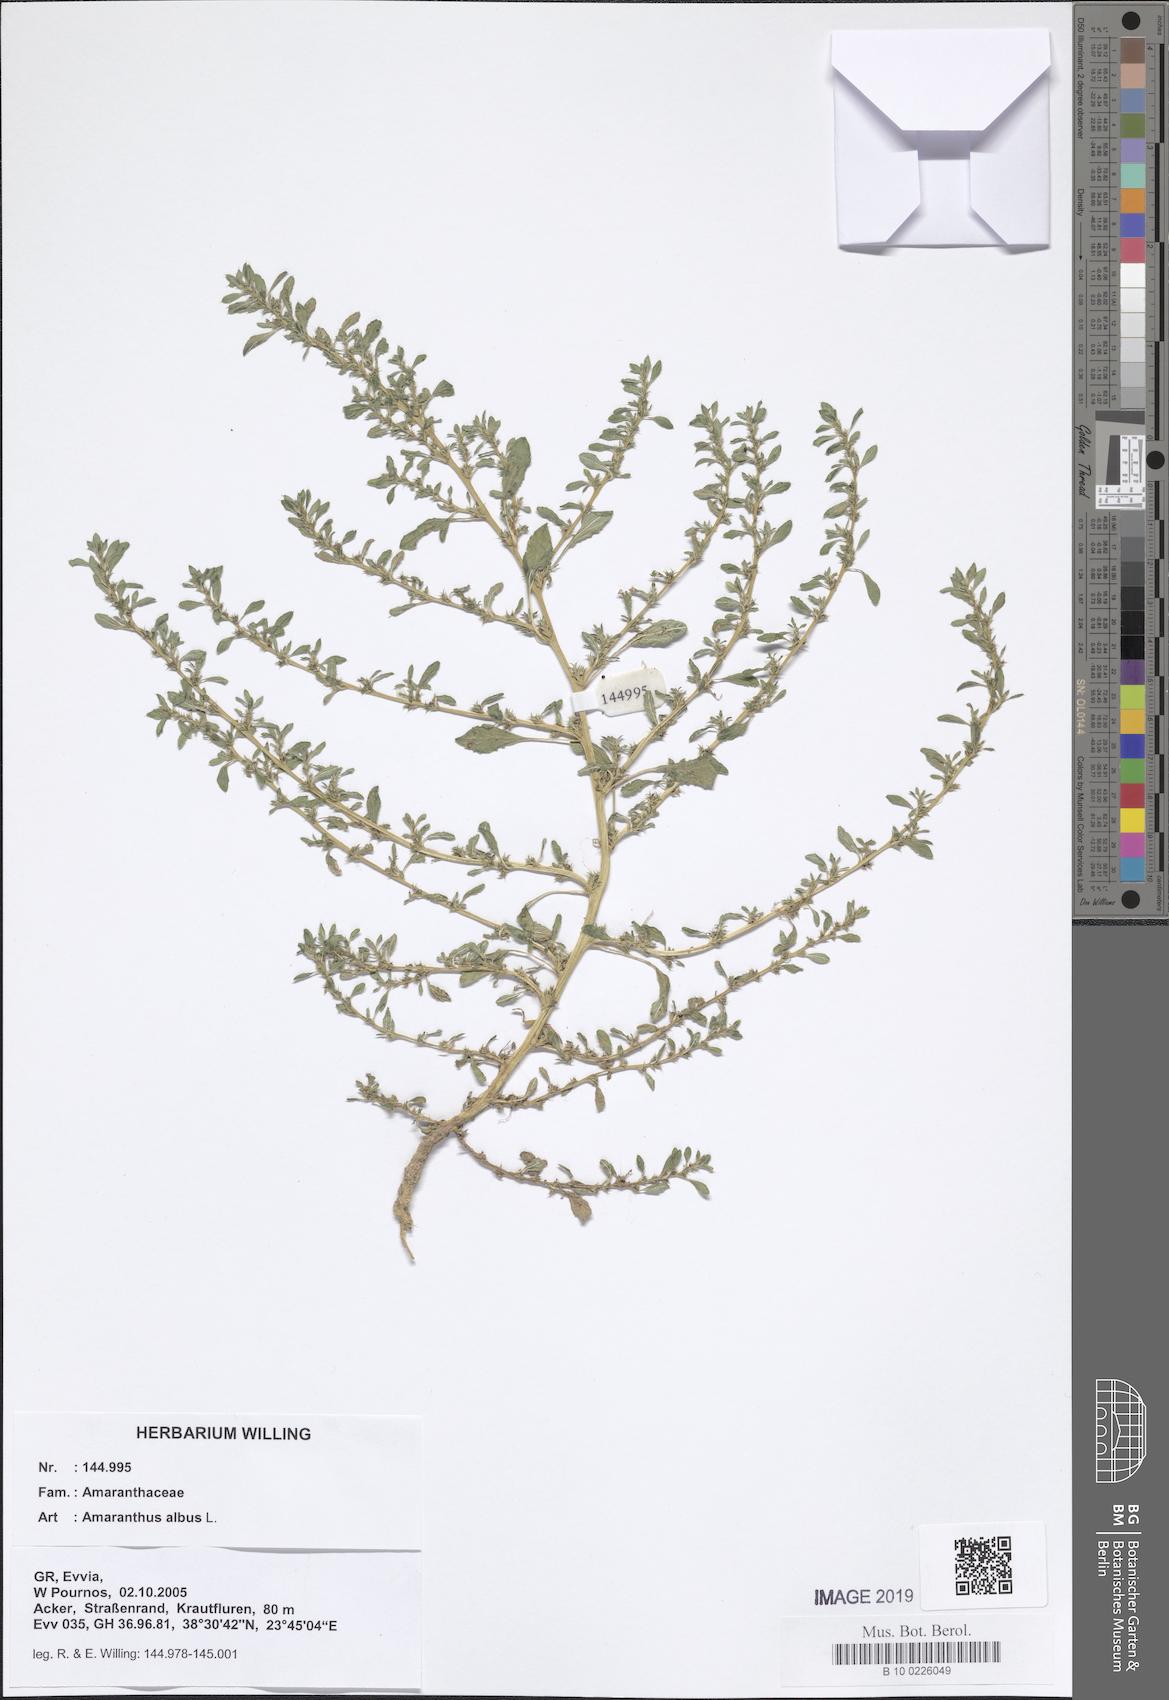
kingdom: Plantae
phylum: Tracheophyta
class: Magnoliopsida
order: Caryophyllales
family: Amaranthaceae
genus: Amaranthus
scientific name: Amaranthus albus
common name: White pigweed
